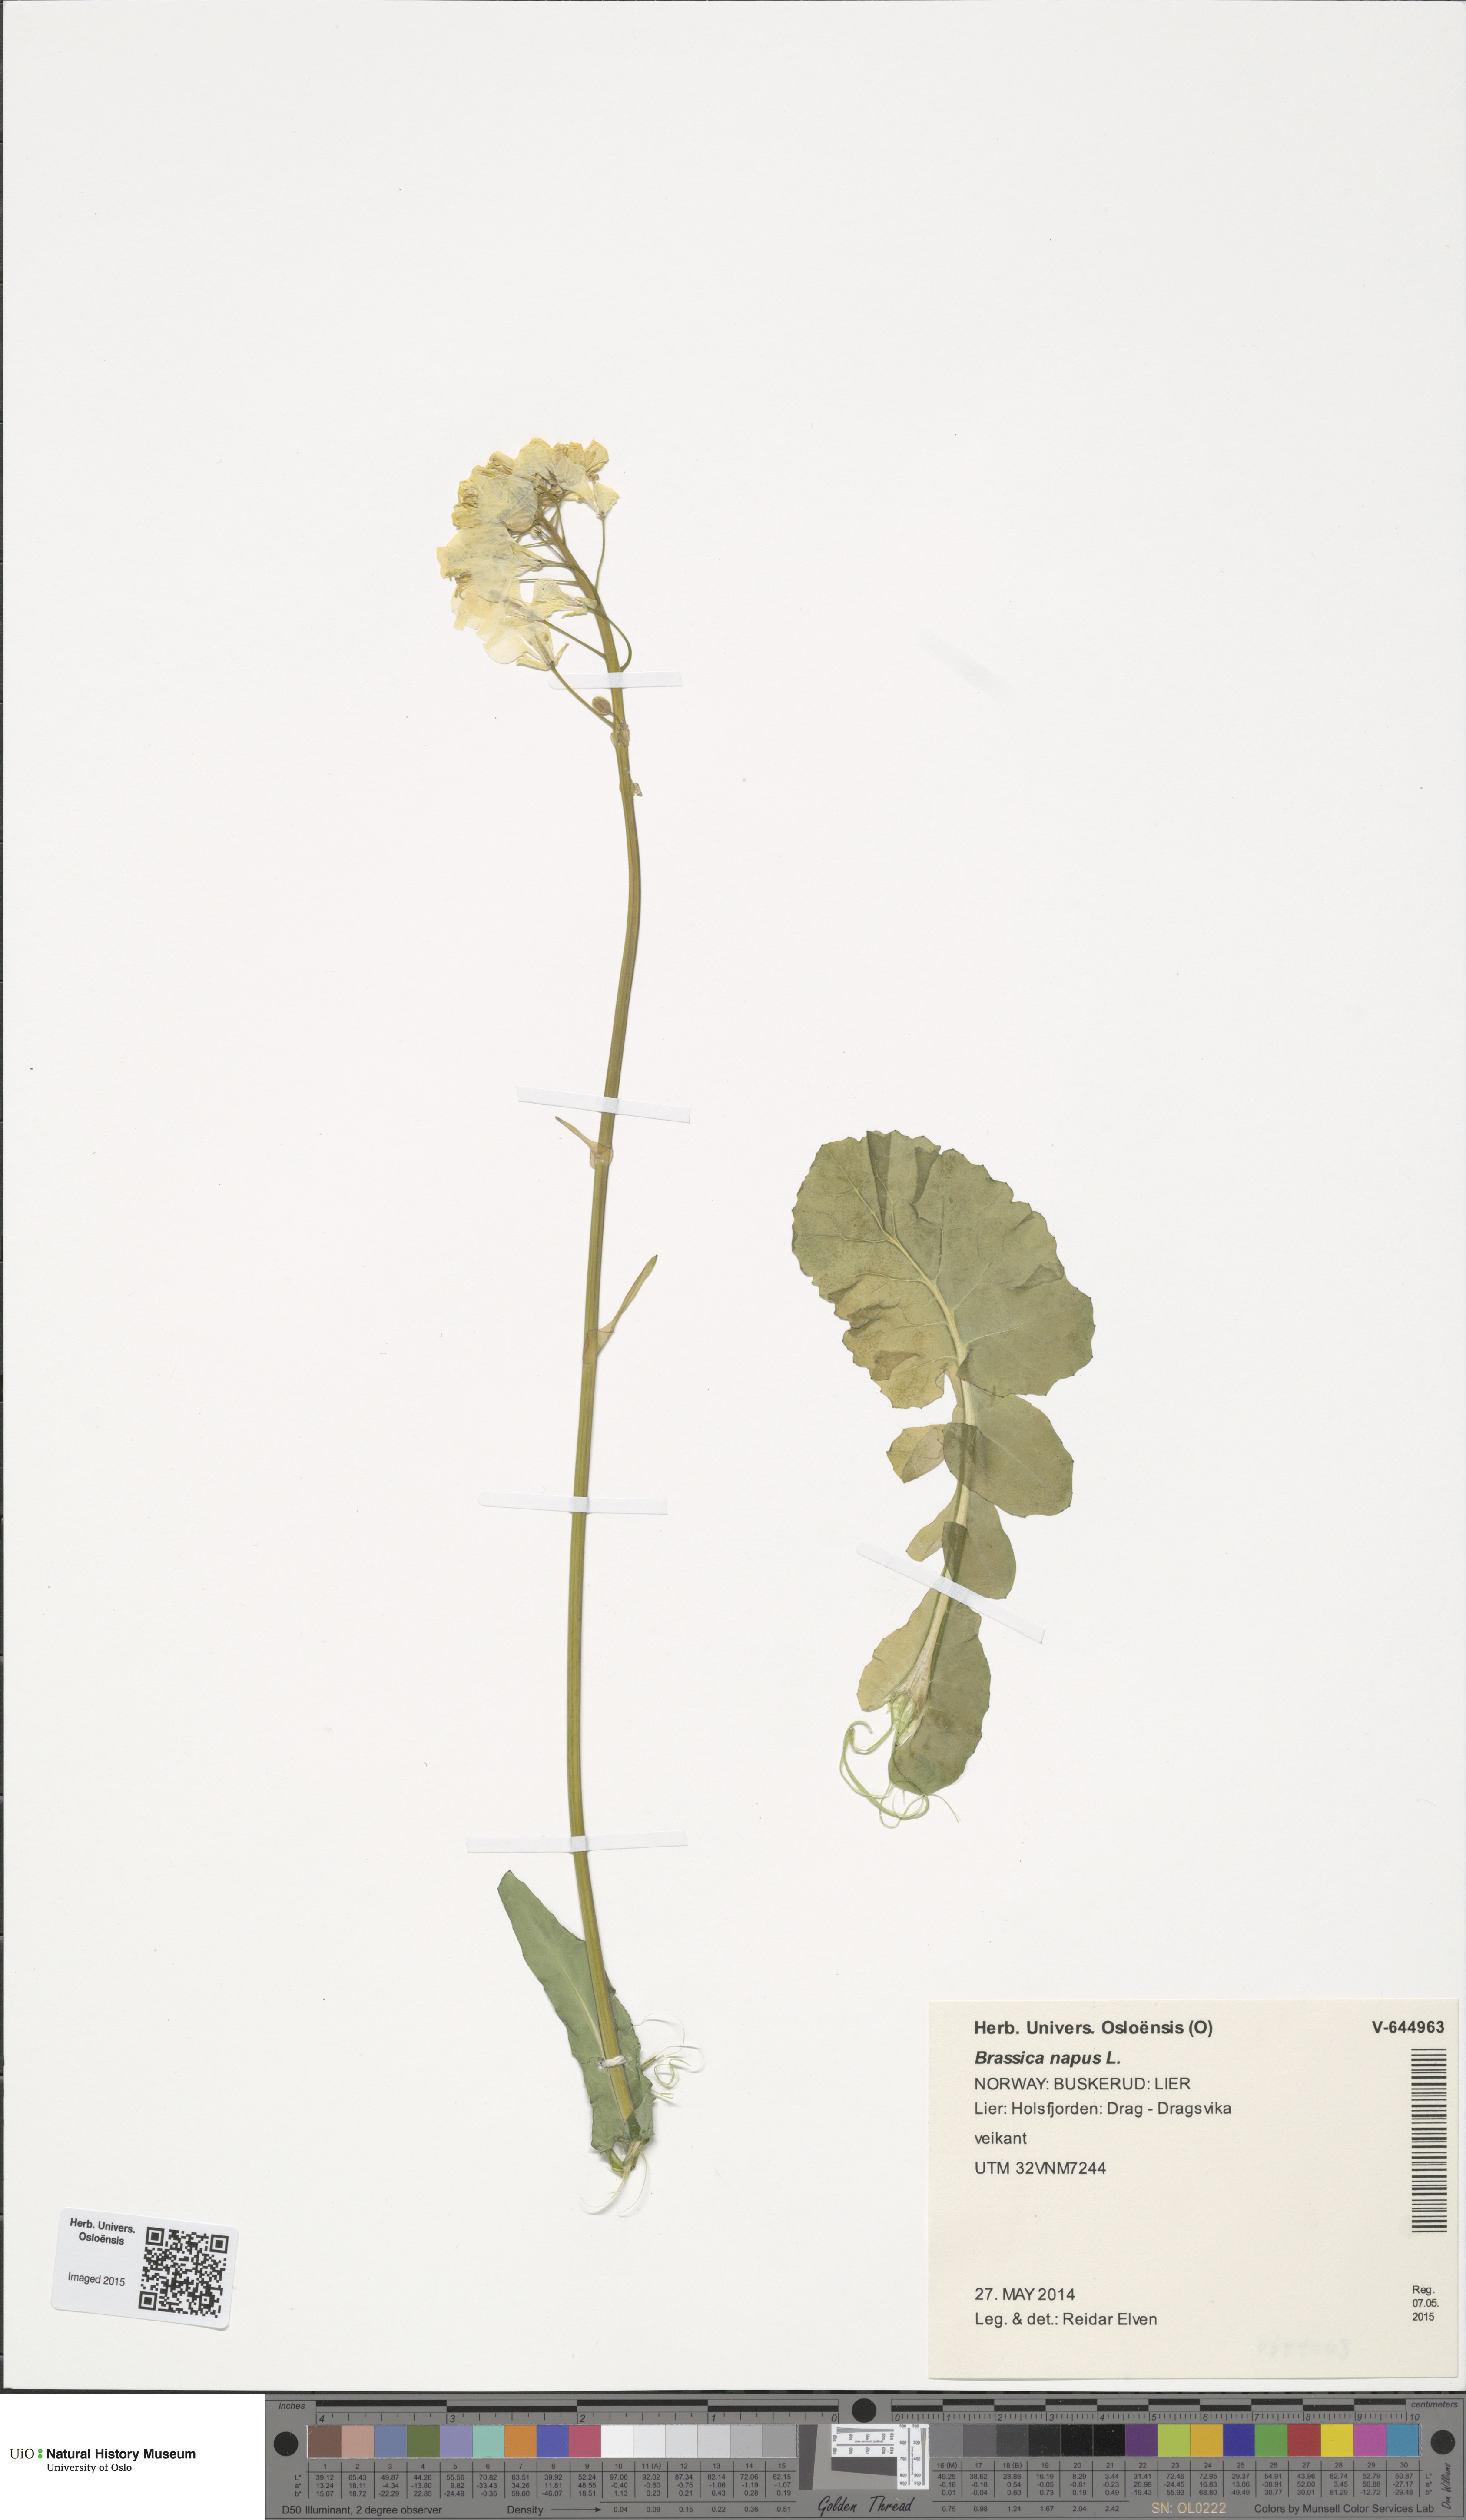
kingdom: Plantae
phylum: Tracheophyta
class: Magnoliopsida
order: Brassicales
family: Brassicaceae
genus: Brassica
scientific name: Brassica napus
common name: Rape
